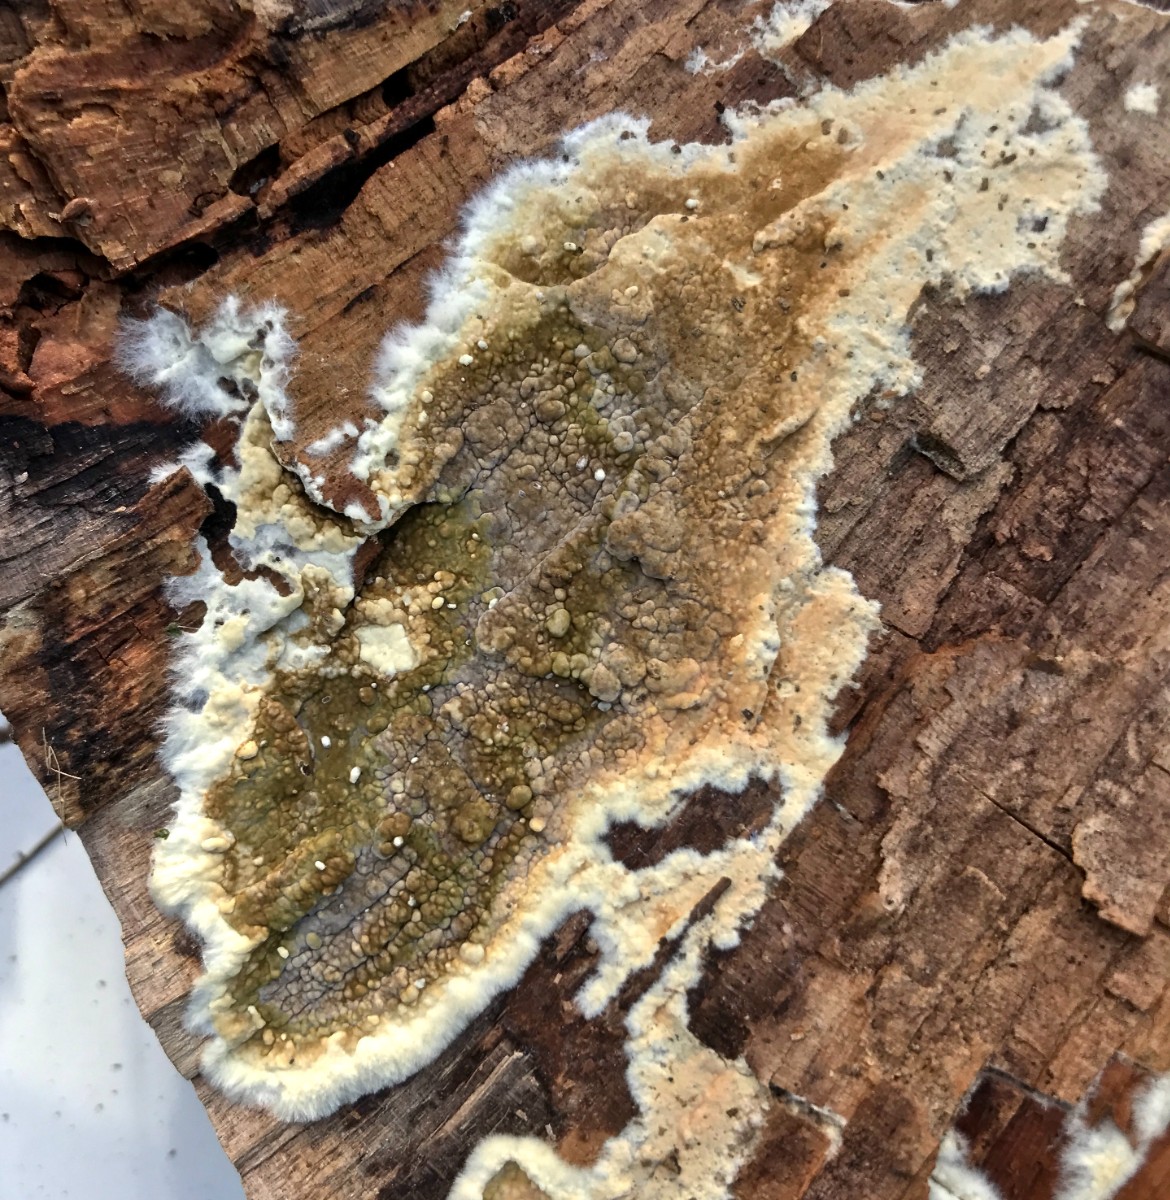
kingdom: Fungi
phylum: Basidiomycota
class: Agaricomycetes
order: Boletales
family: Coniophoraceae
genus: Coniophora
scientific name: Coniophora puteana
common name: gul tømmersvamp
